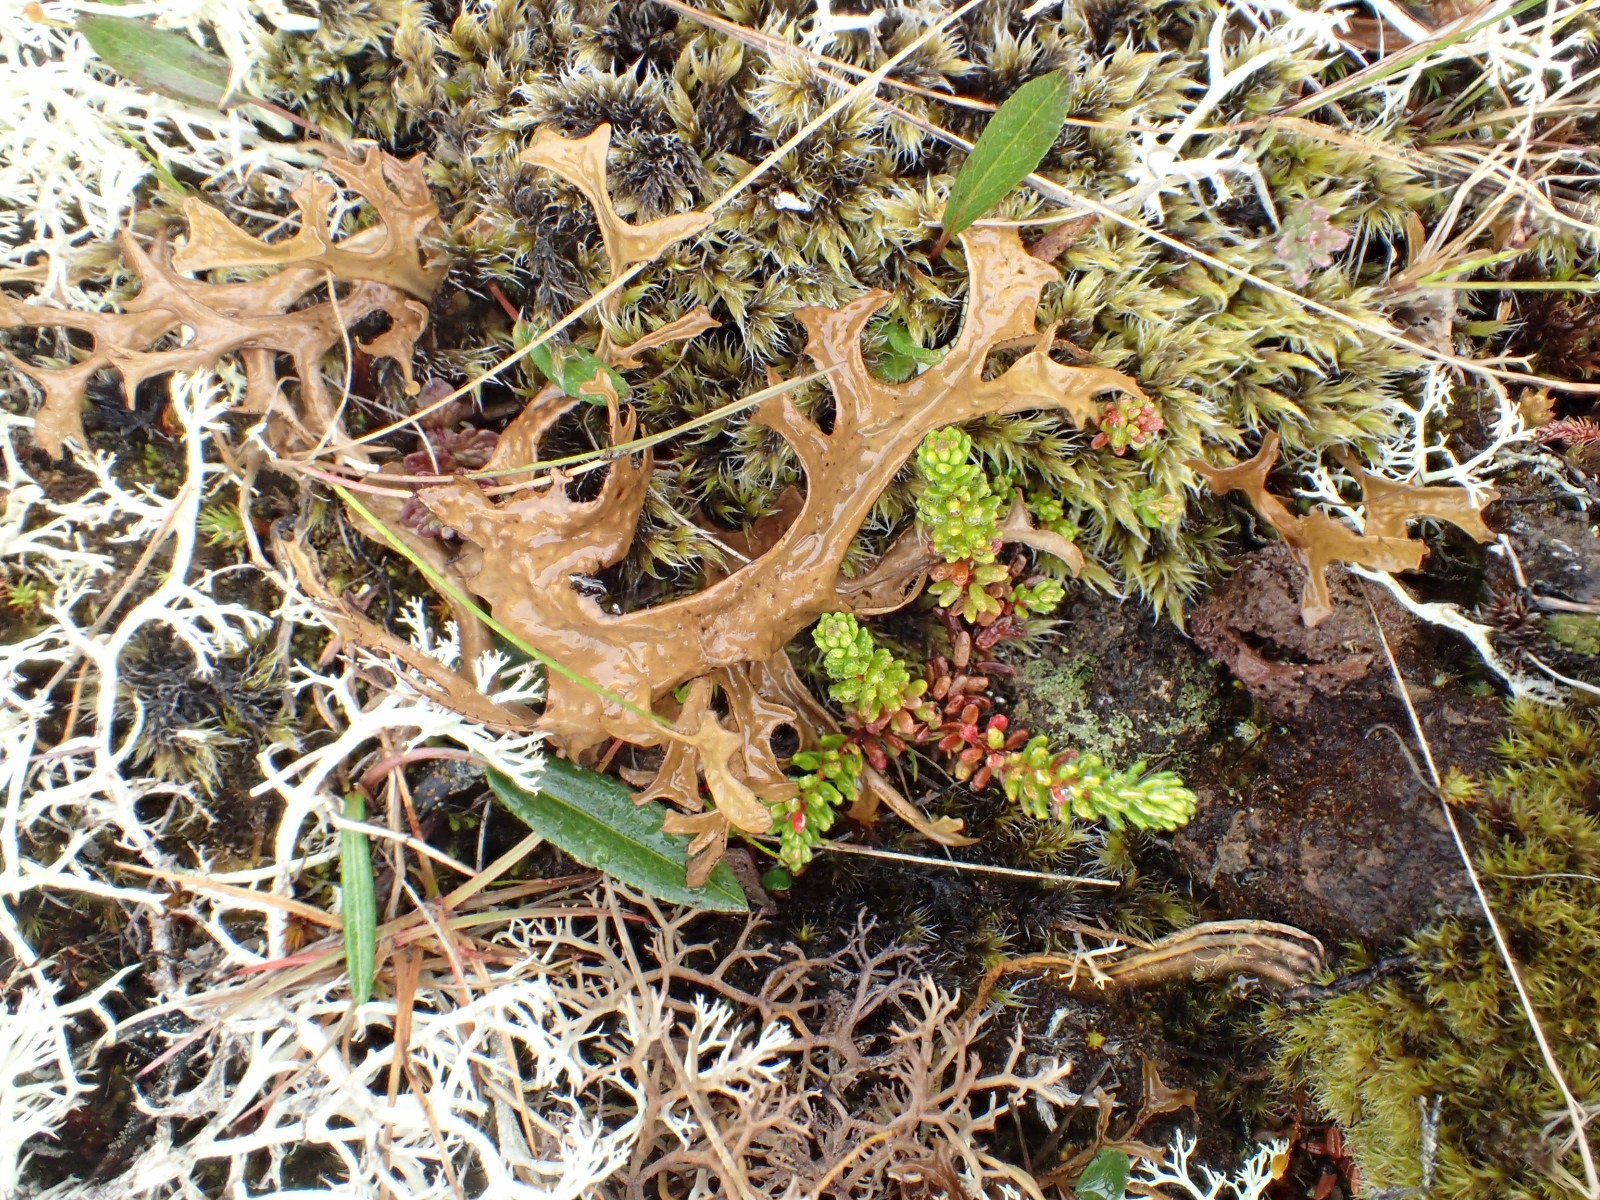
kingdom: Fungi
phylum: Ascomycota
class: Lecanoromycetes
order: Lecanorales
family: Parmeliaceae
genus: Cetraria
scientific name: Cetraria islandica
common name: islandsk kruslav
